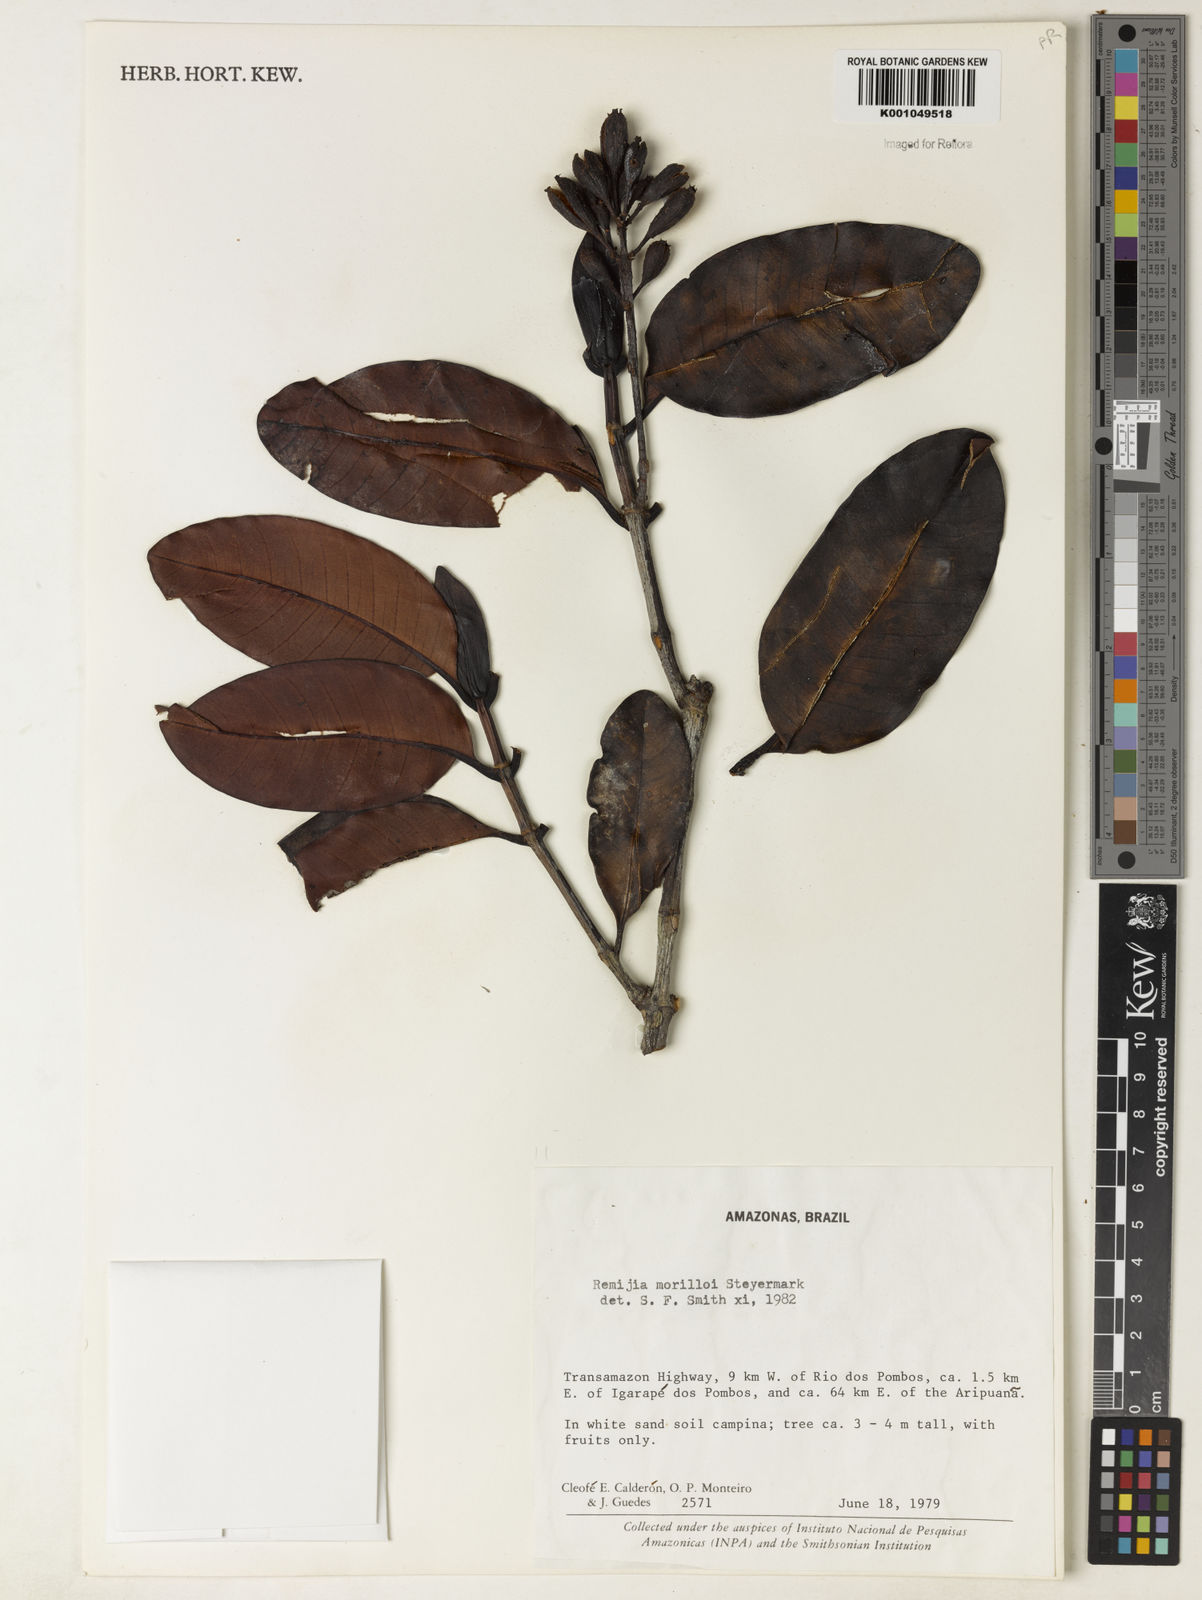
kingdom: Plantae
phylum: Tracheophyta
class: Magnoliopsida
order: Gentianales
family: Rubiaceae
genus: Remijia
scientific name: Remijia morilloi
